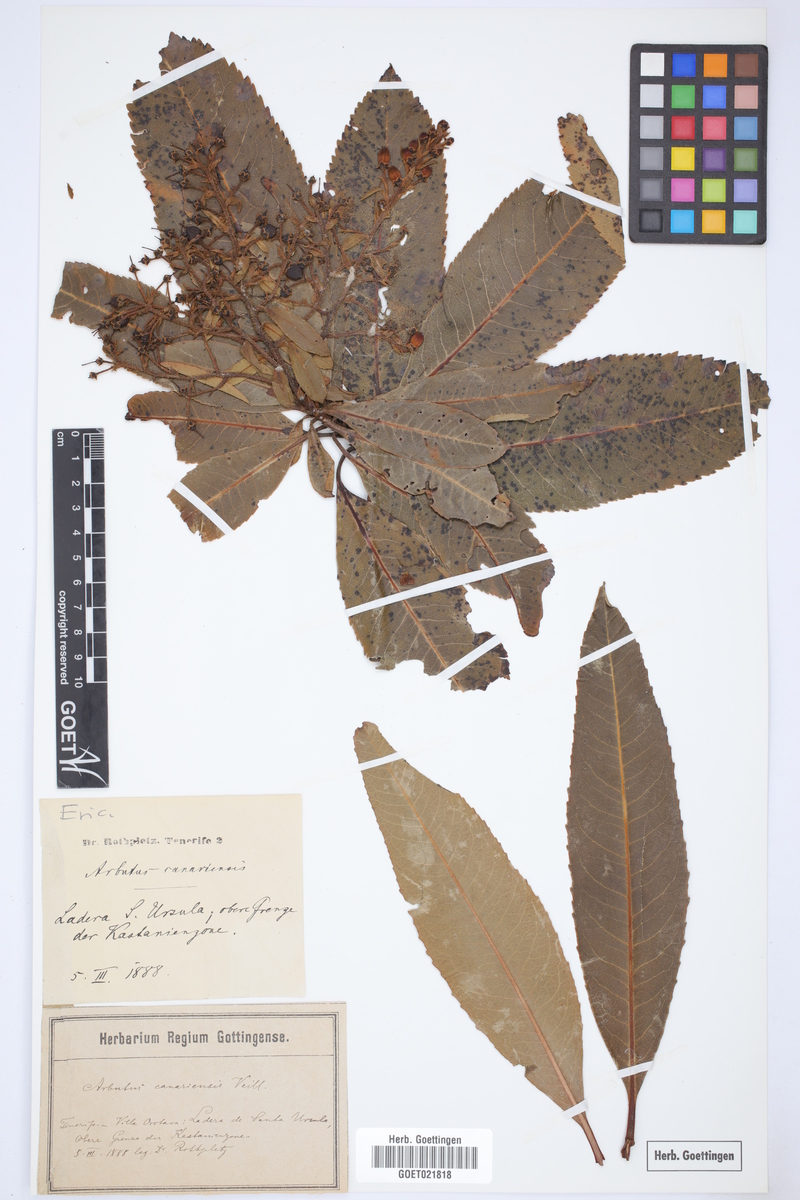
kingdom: Plantae
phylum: Tracheophyta
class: Magnoliopsida
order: Ericales
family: Ericaceae
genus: Arbutus
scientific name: Arbutus canariensis
